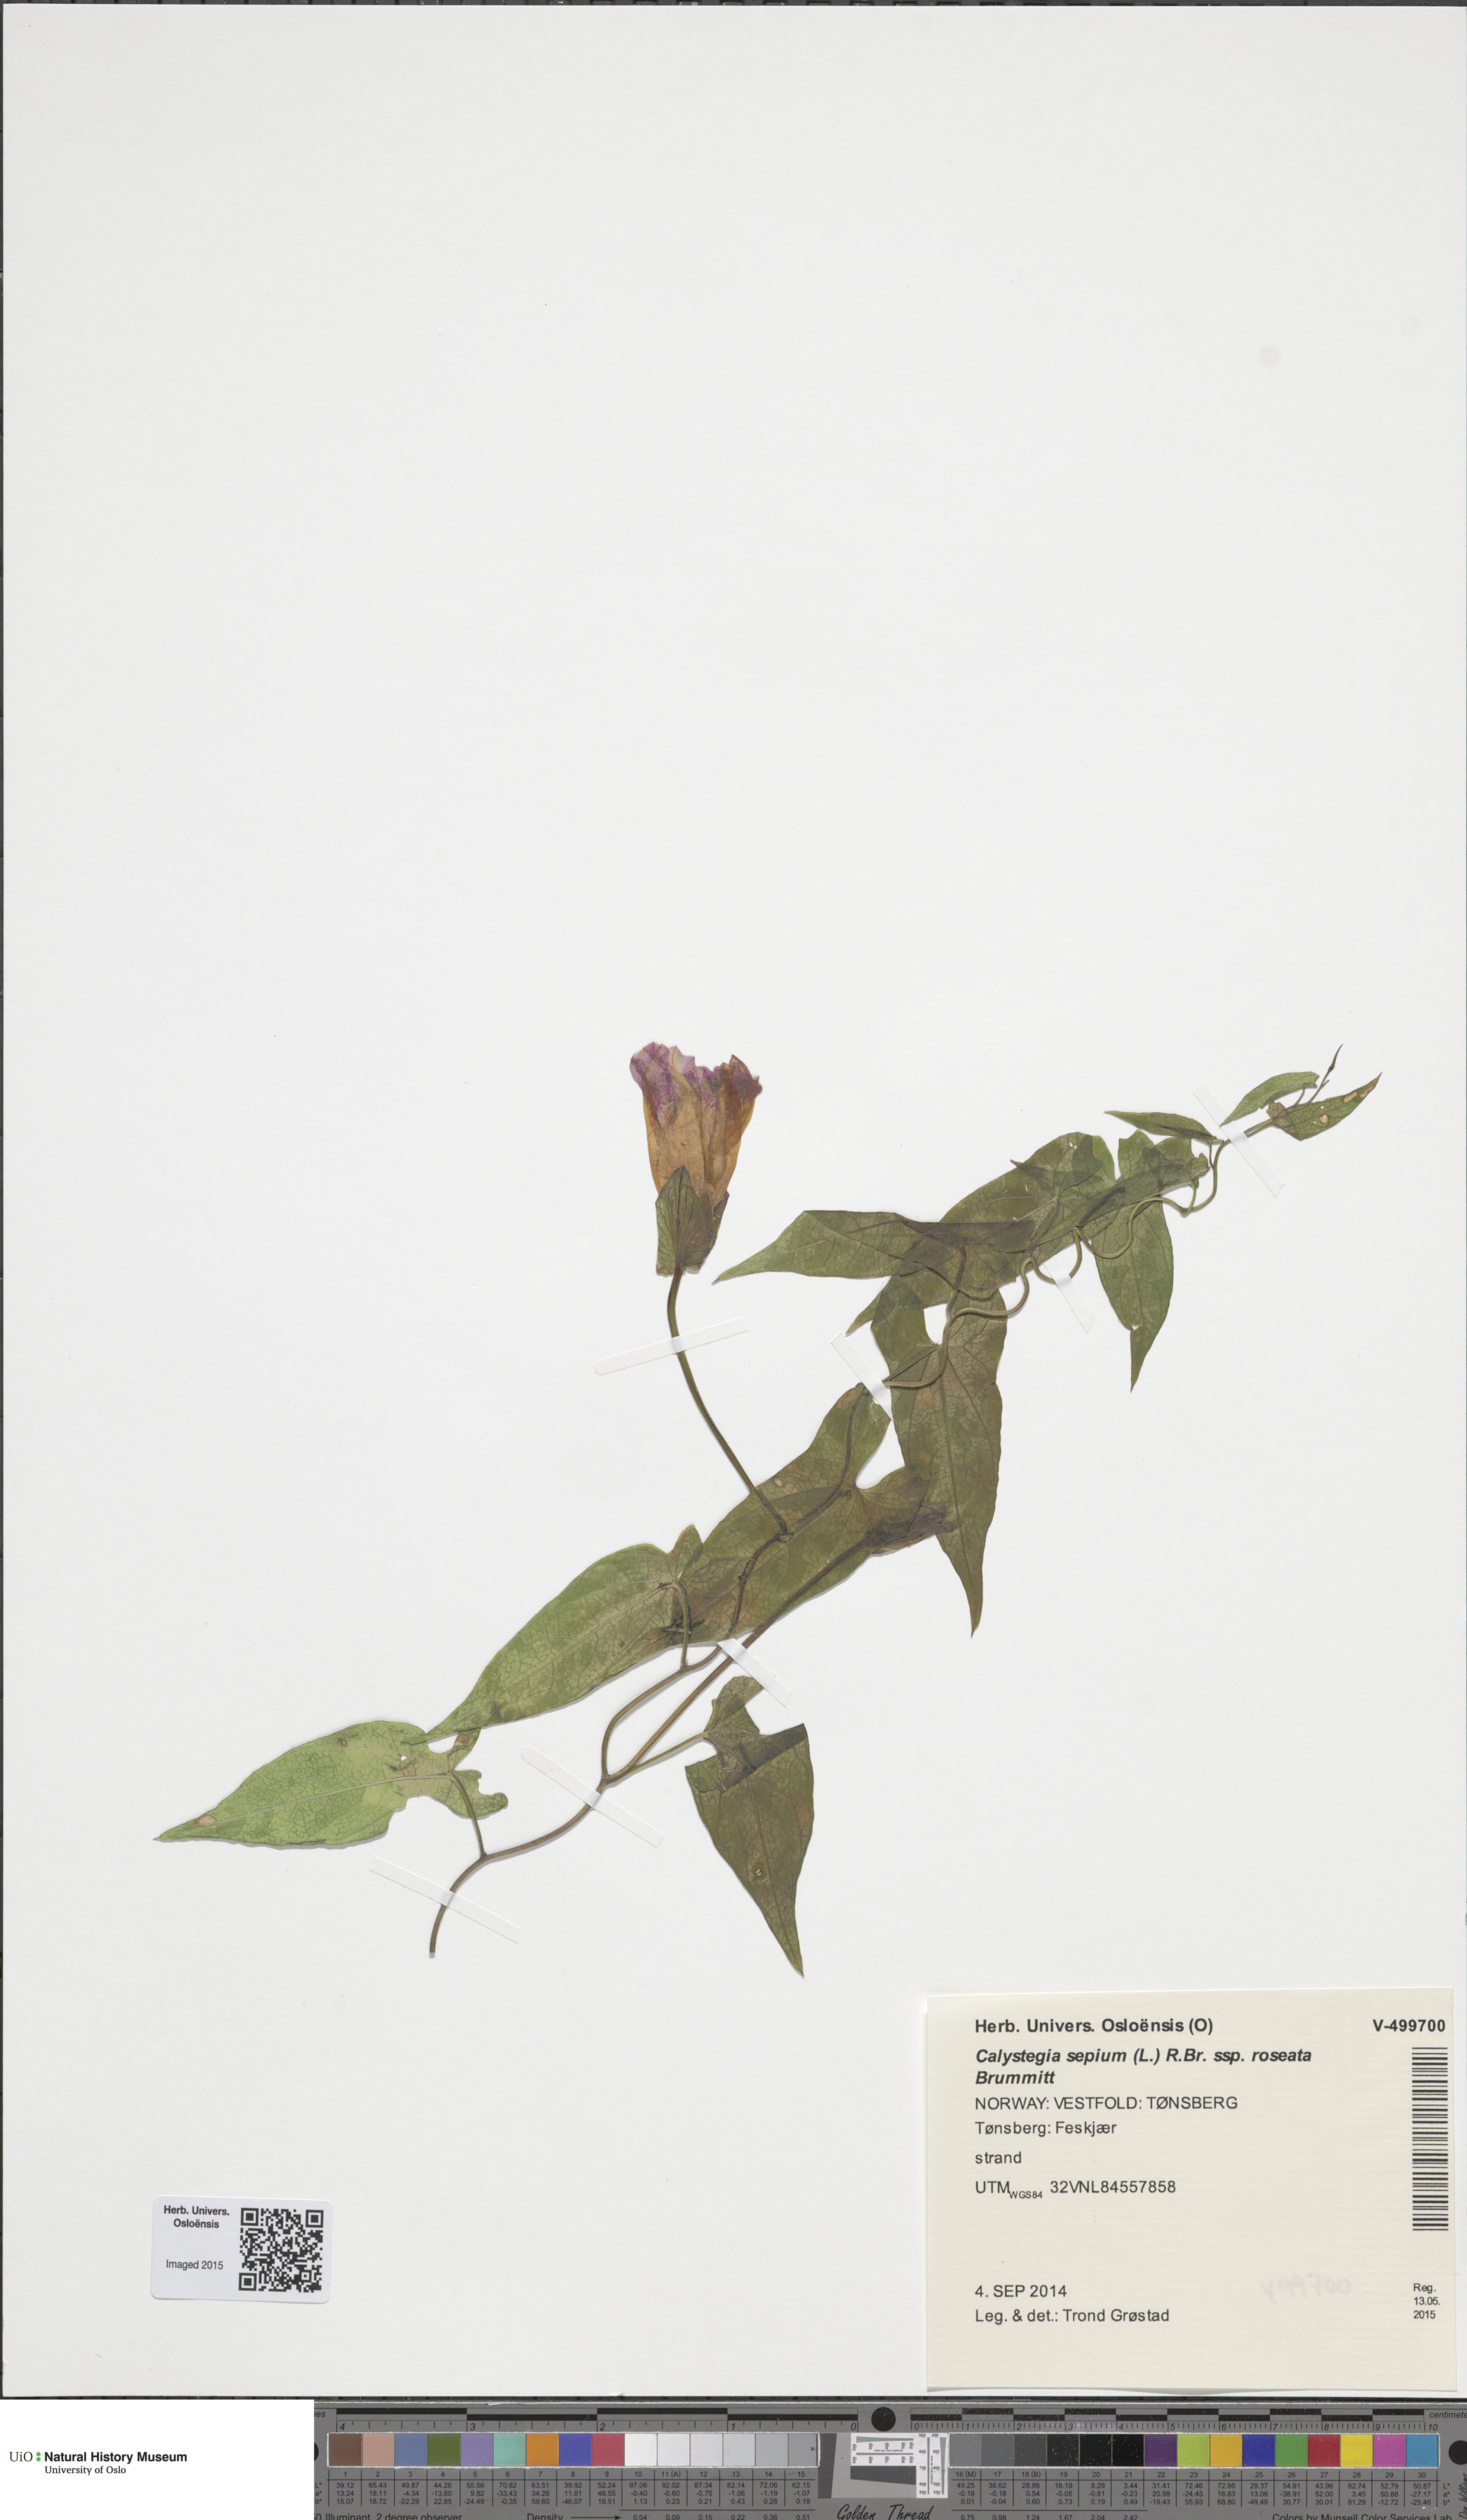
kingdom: Plantae
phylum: Tracheophyta
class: Magnoliopsida
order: Solanales
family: Convolvulaceae
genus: Calystegia
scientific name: Calystegia pulchra
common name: Hairy bindweed
